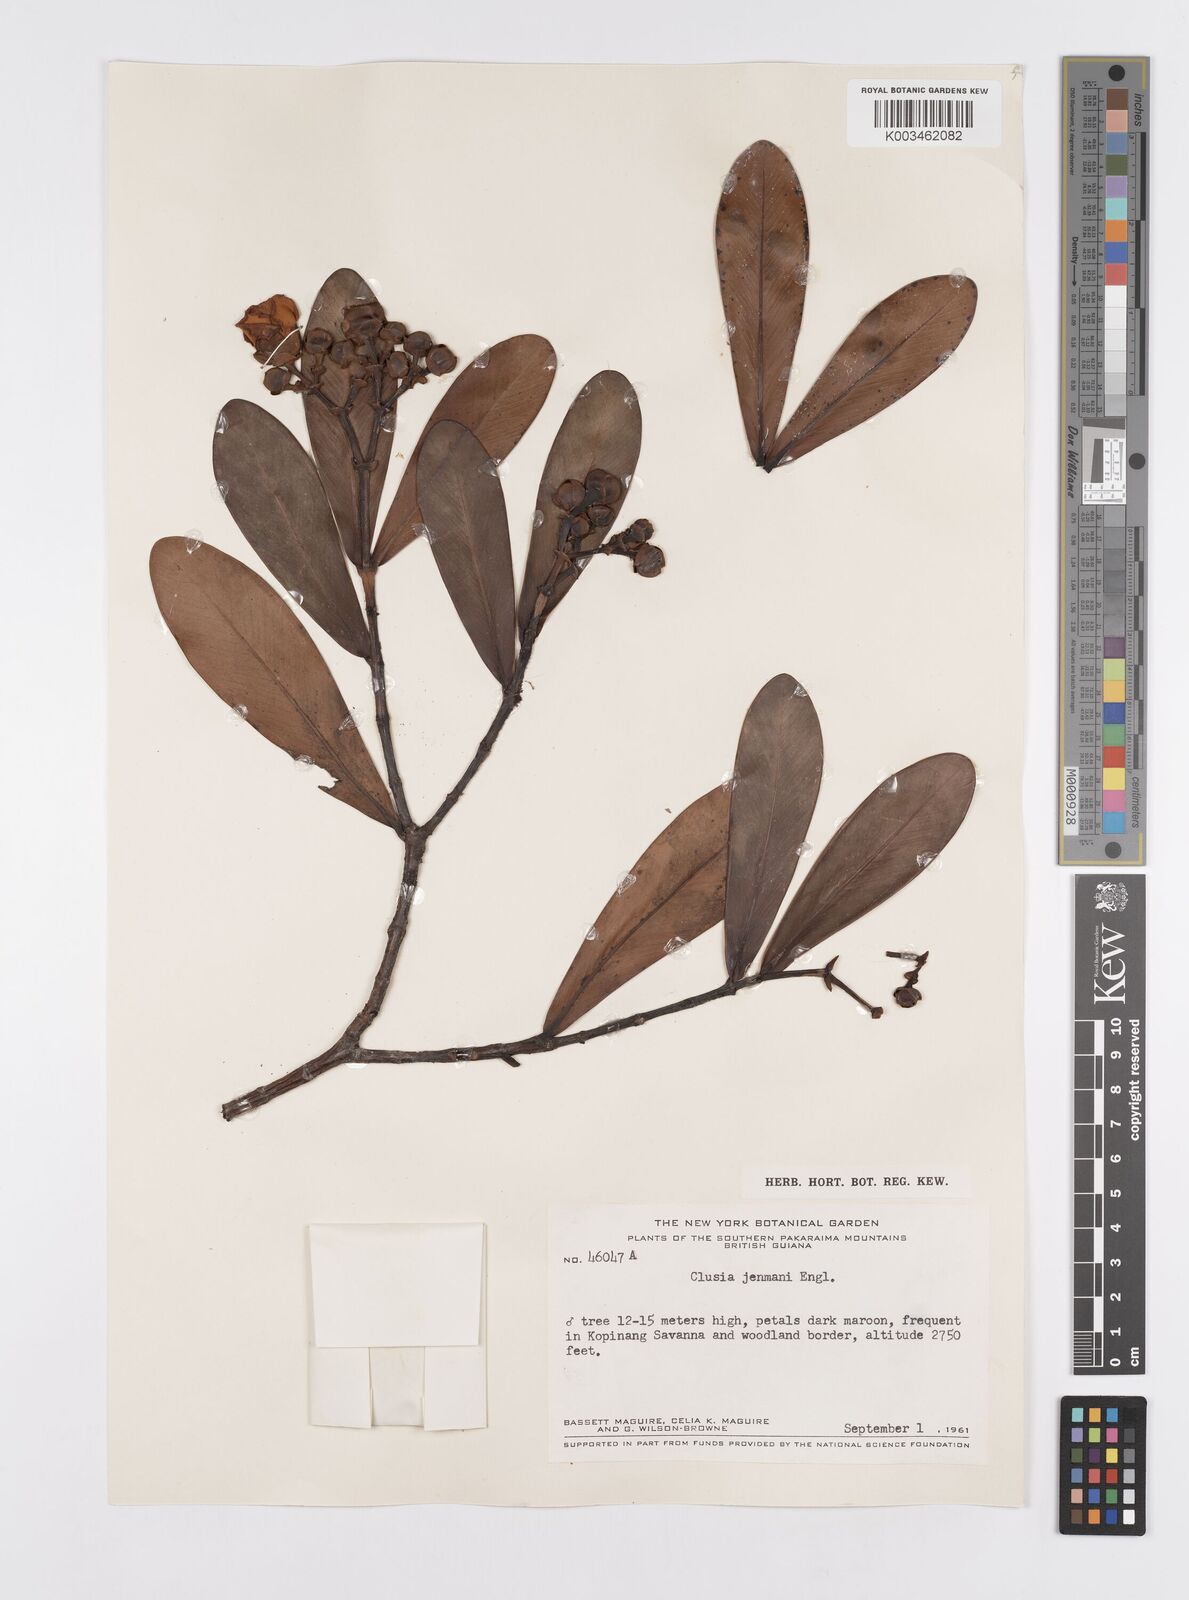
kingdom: Plantae
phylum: Tracheophyta
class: Magnoliopsida
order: Malpighiales
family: Clusiaceae
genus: Clusia
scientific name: Clusia myriandra
